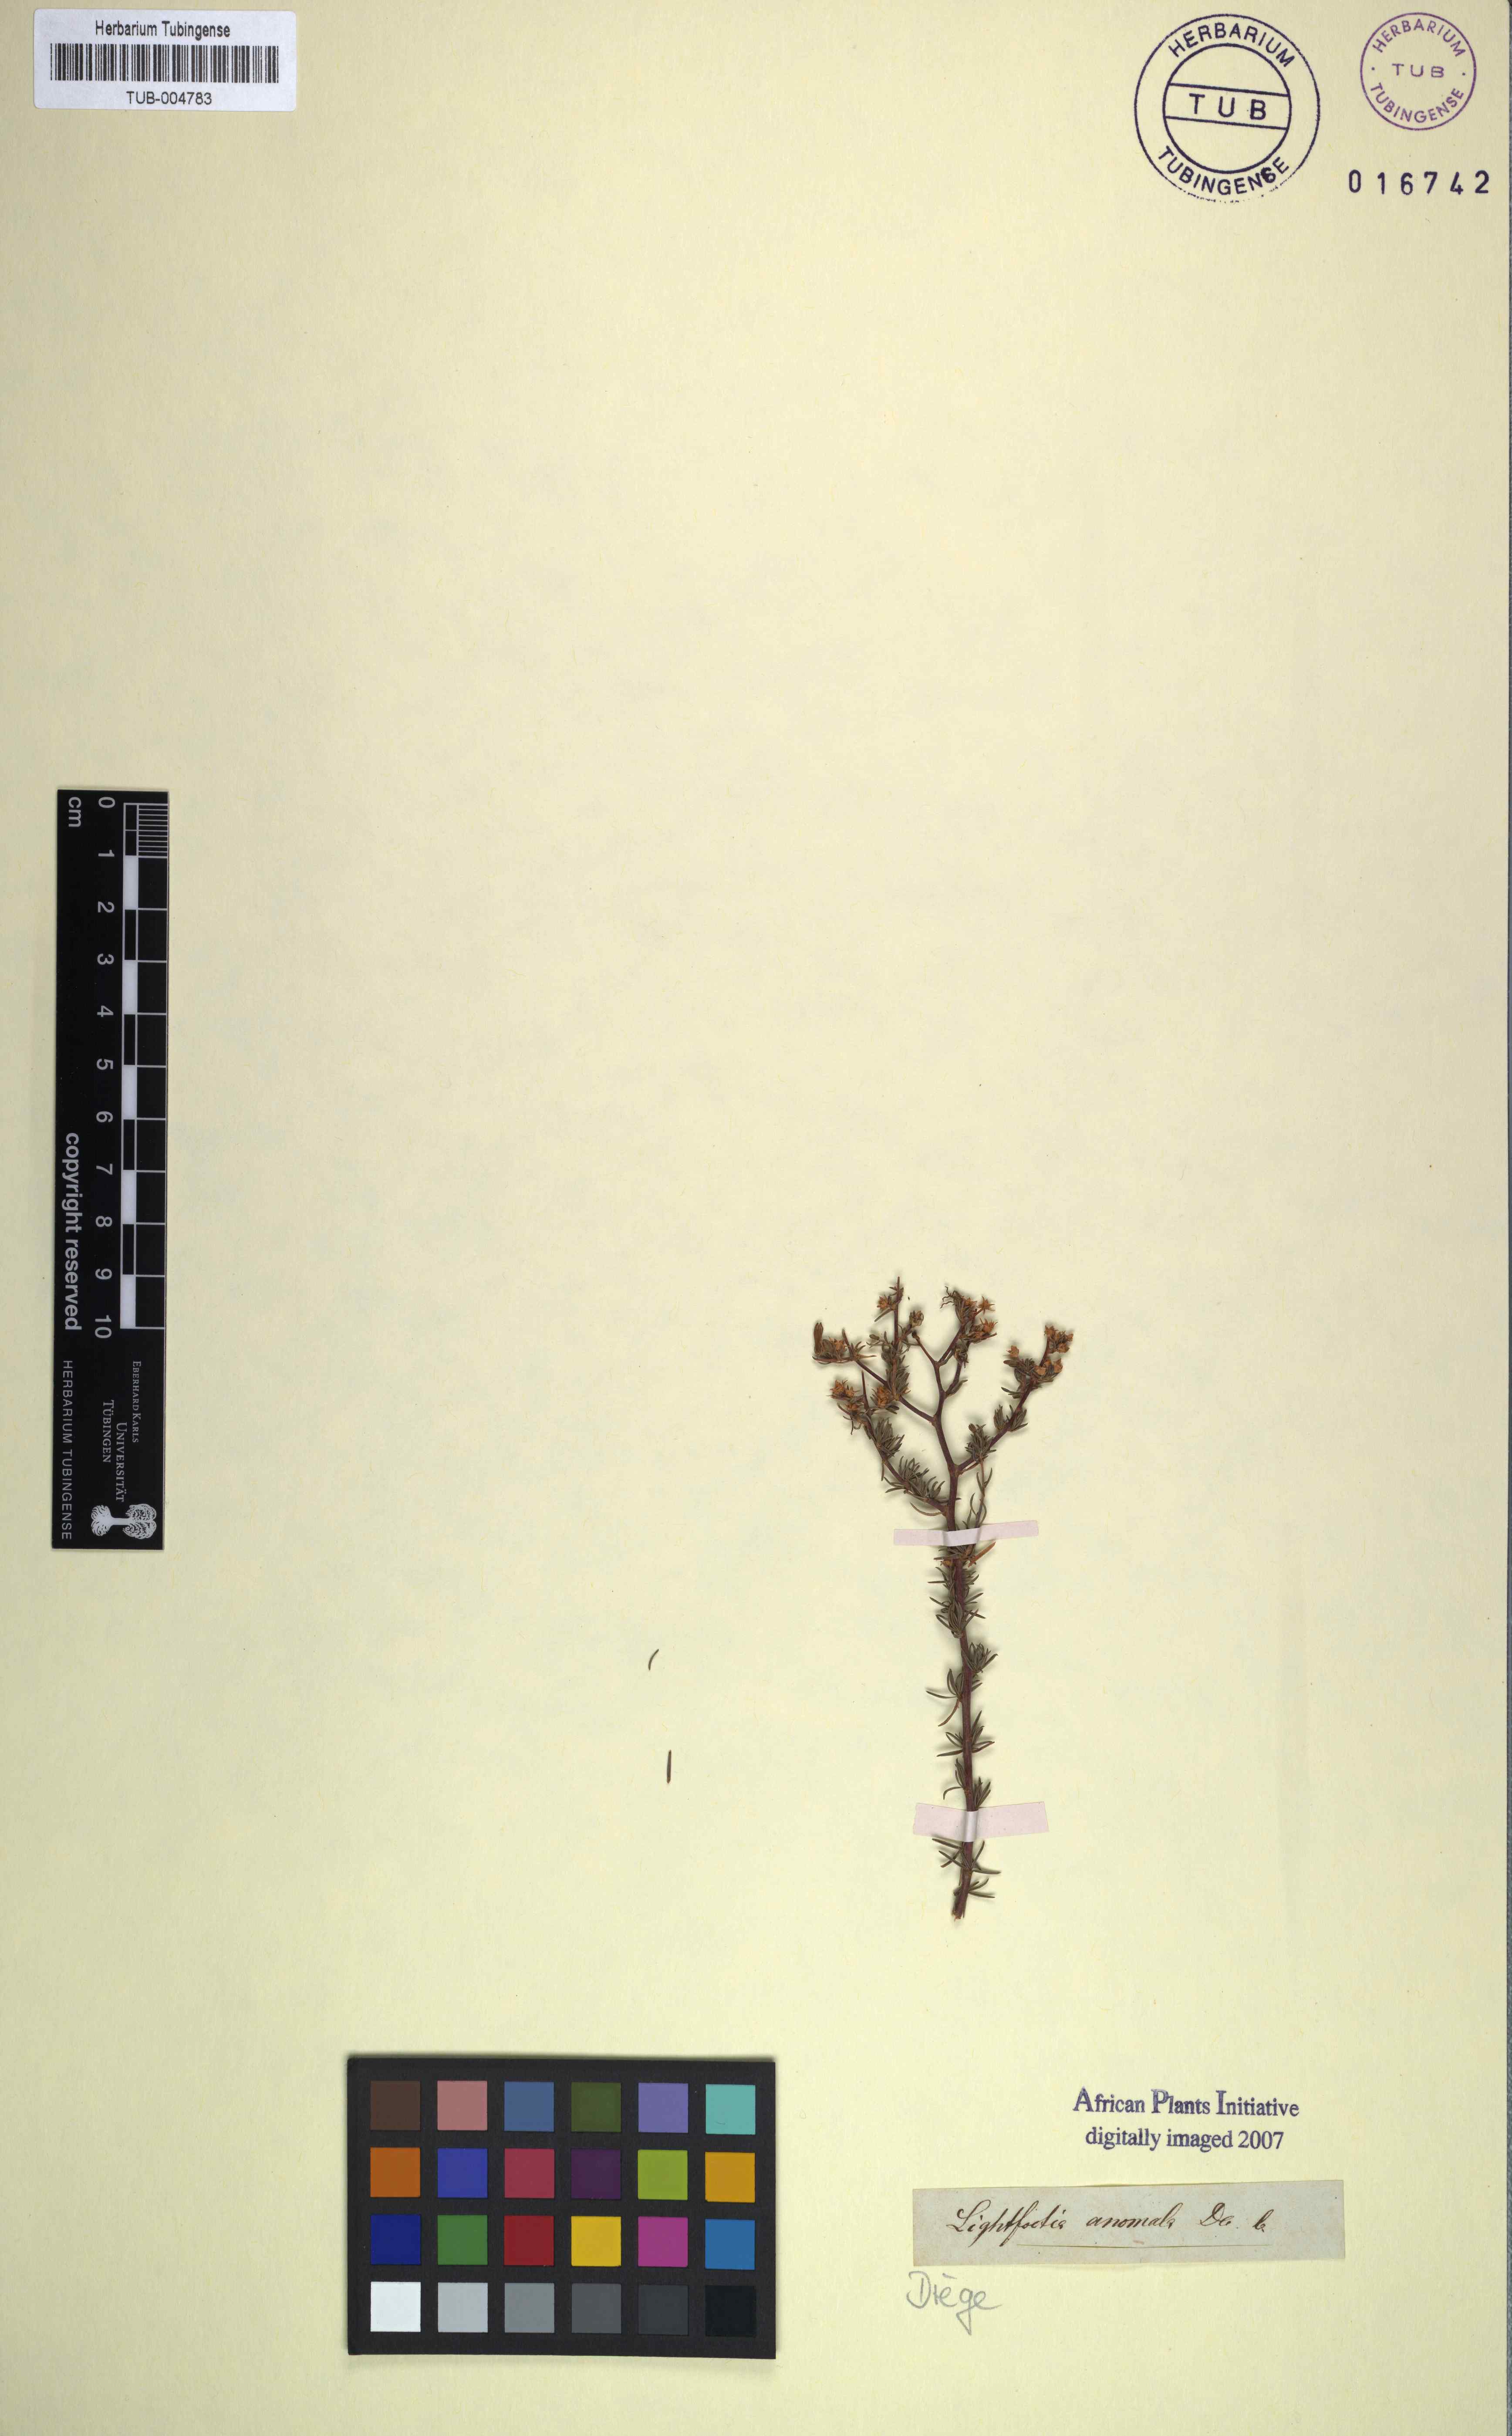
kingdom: Plantae
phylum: Tracheophyta
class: Magnoliopsida
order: Asterales
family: Campanulaceae
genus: Wahlenbergia
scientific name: Wahlenbergia thunbergiana
